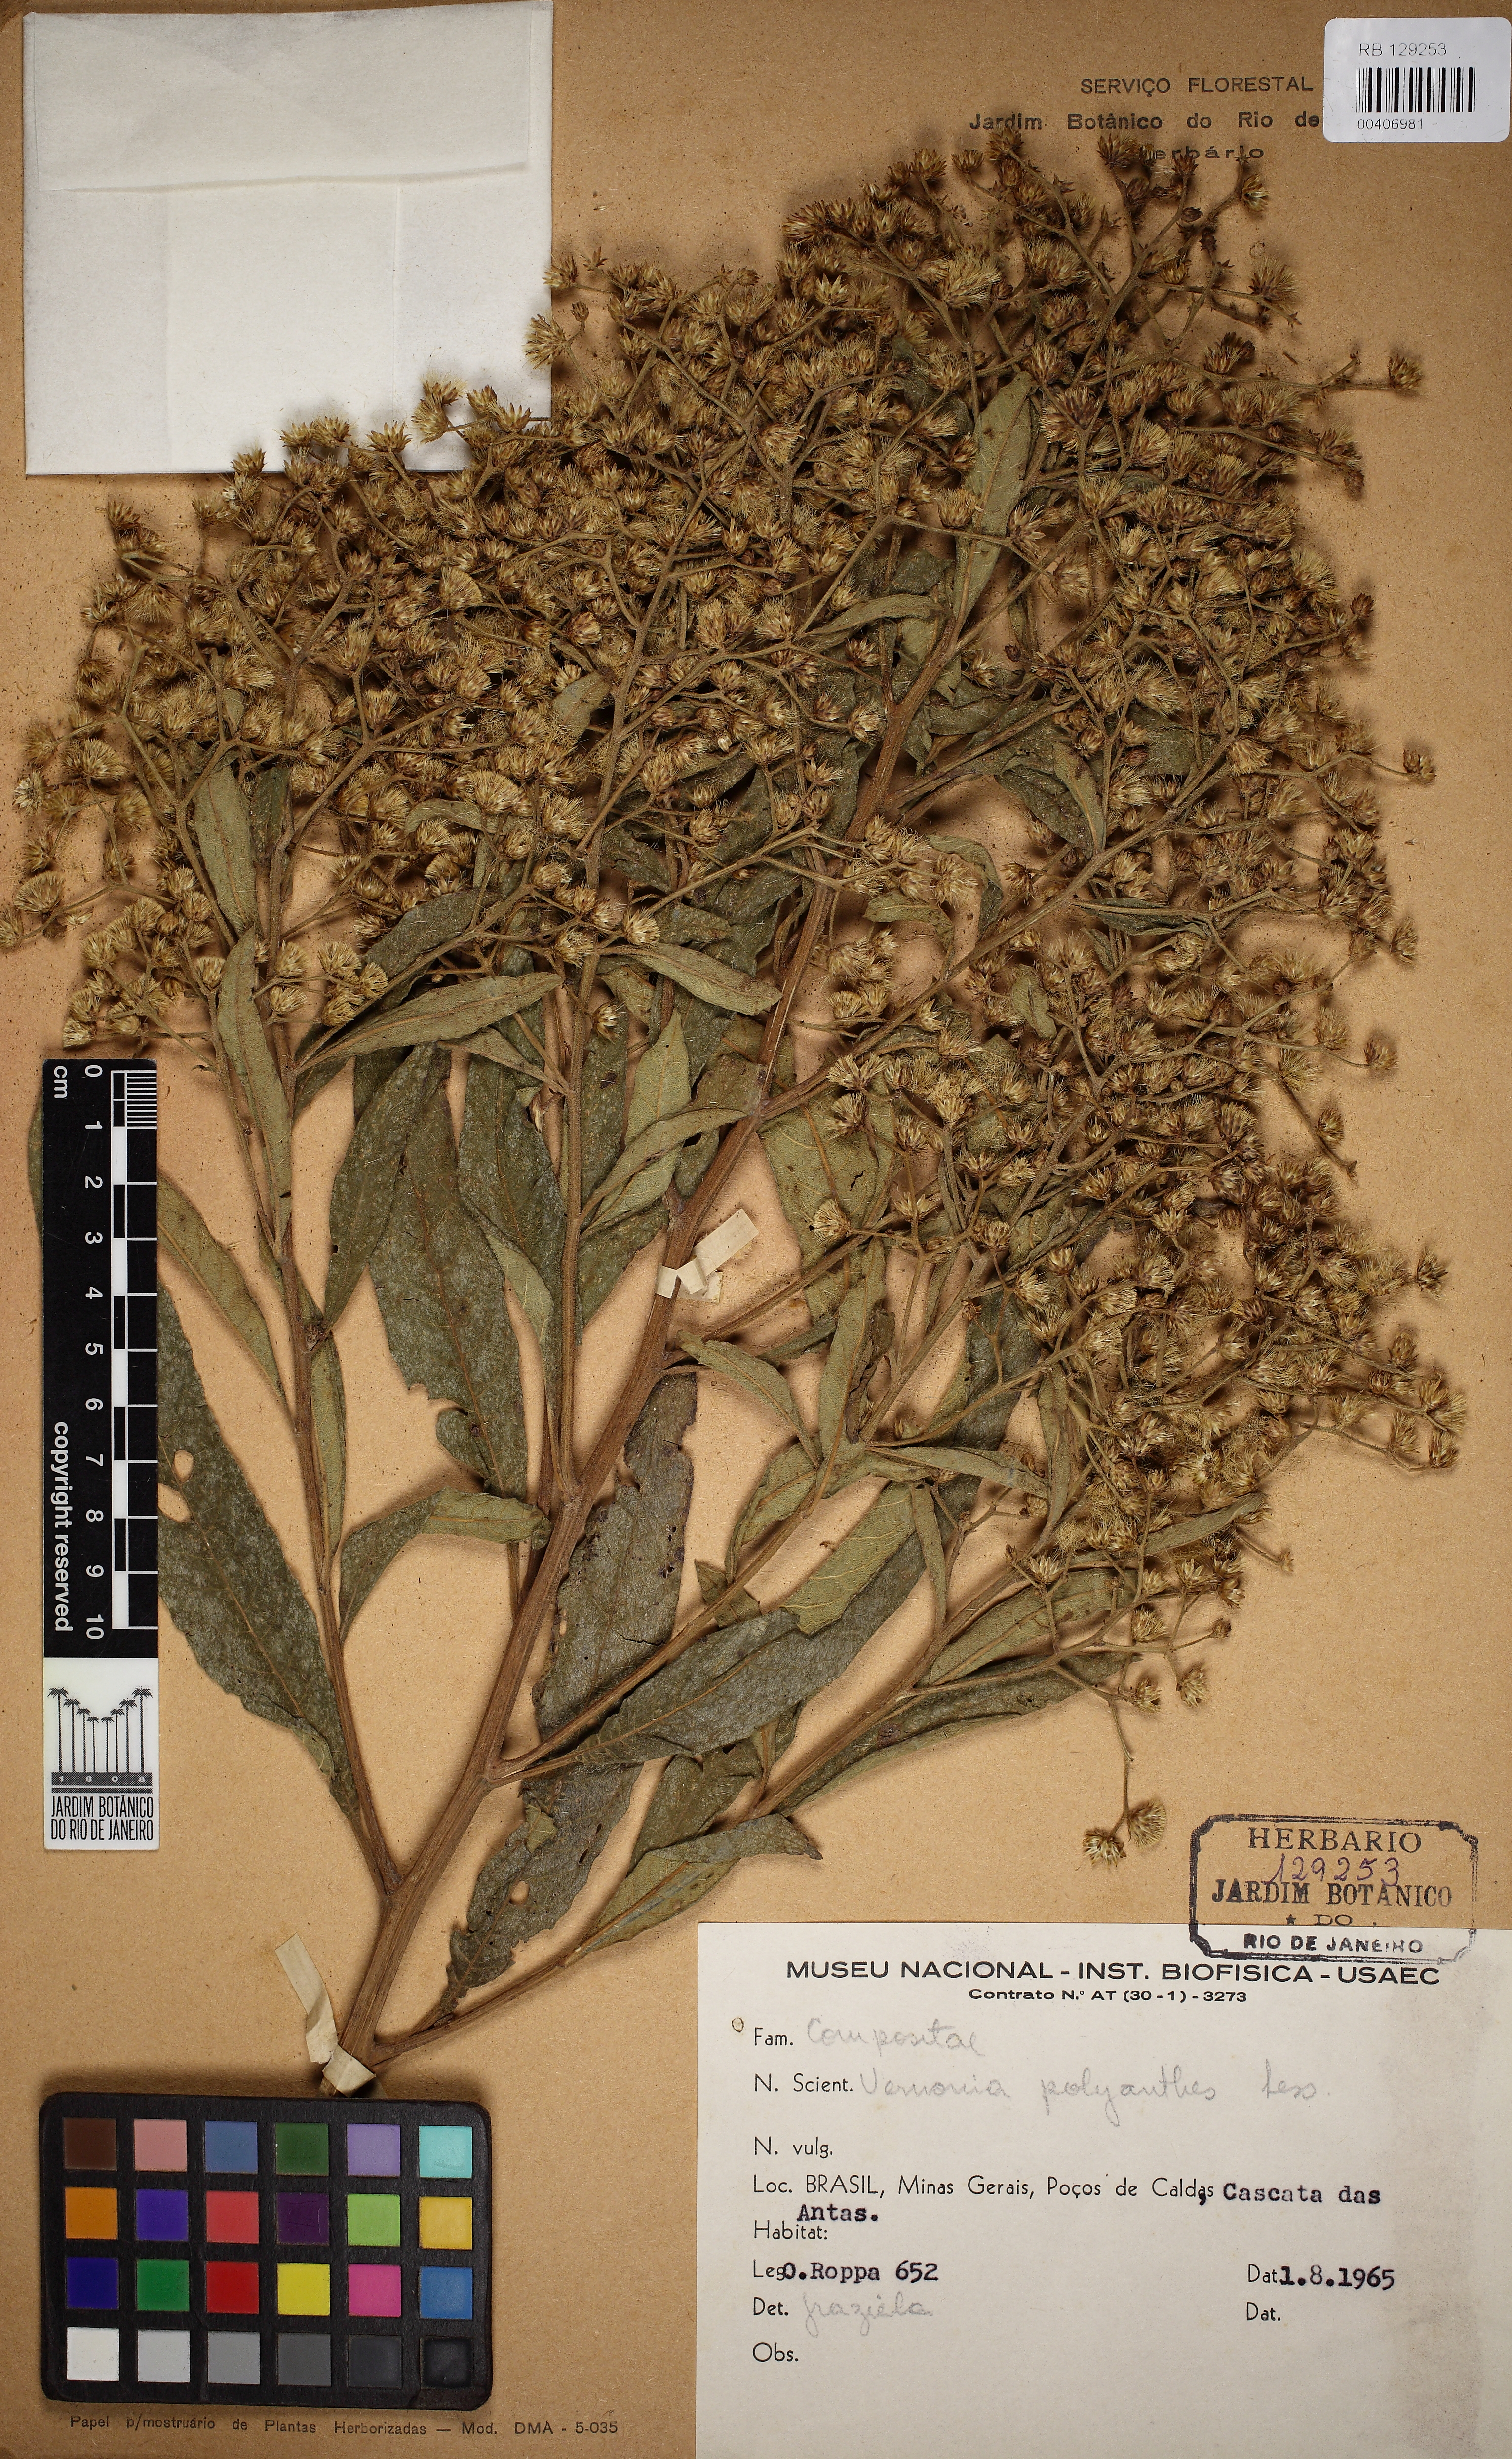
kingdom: Plantae
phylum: Tracheophyta
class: Magnoliopsida
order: Asterales
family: Asteraceae
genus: Vernonanthura
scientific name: Vernonanthura polyanthes
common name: Tree aster
